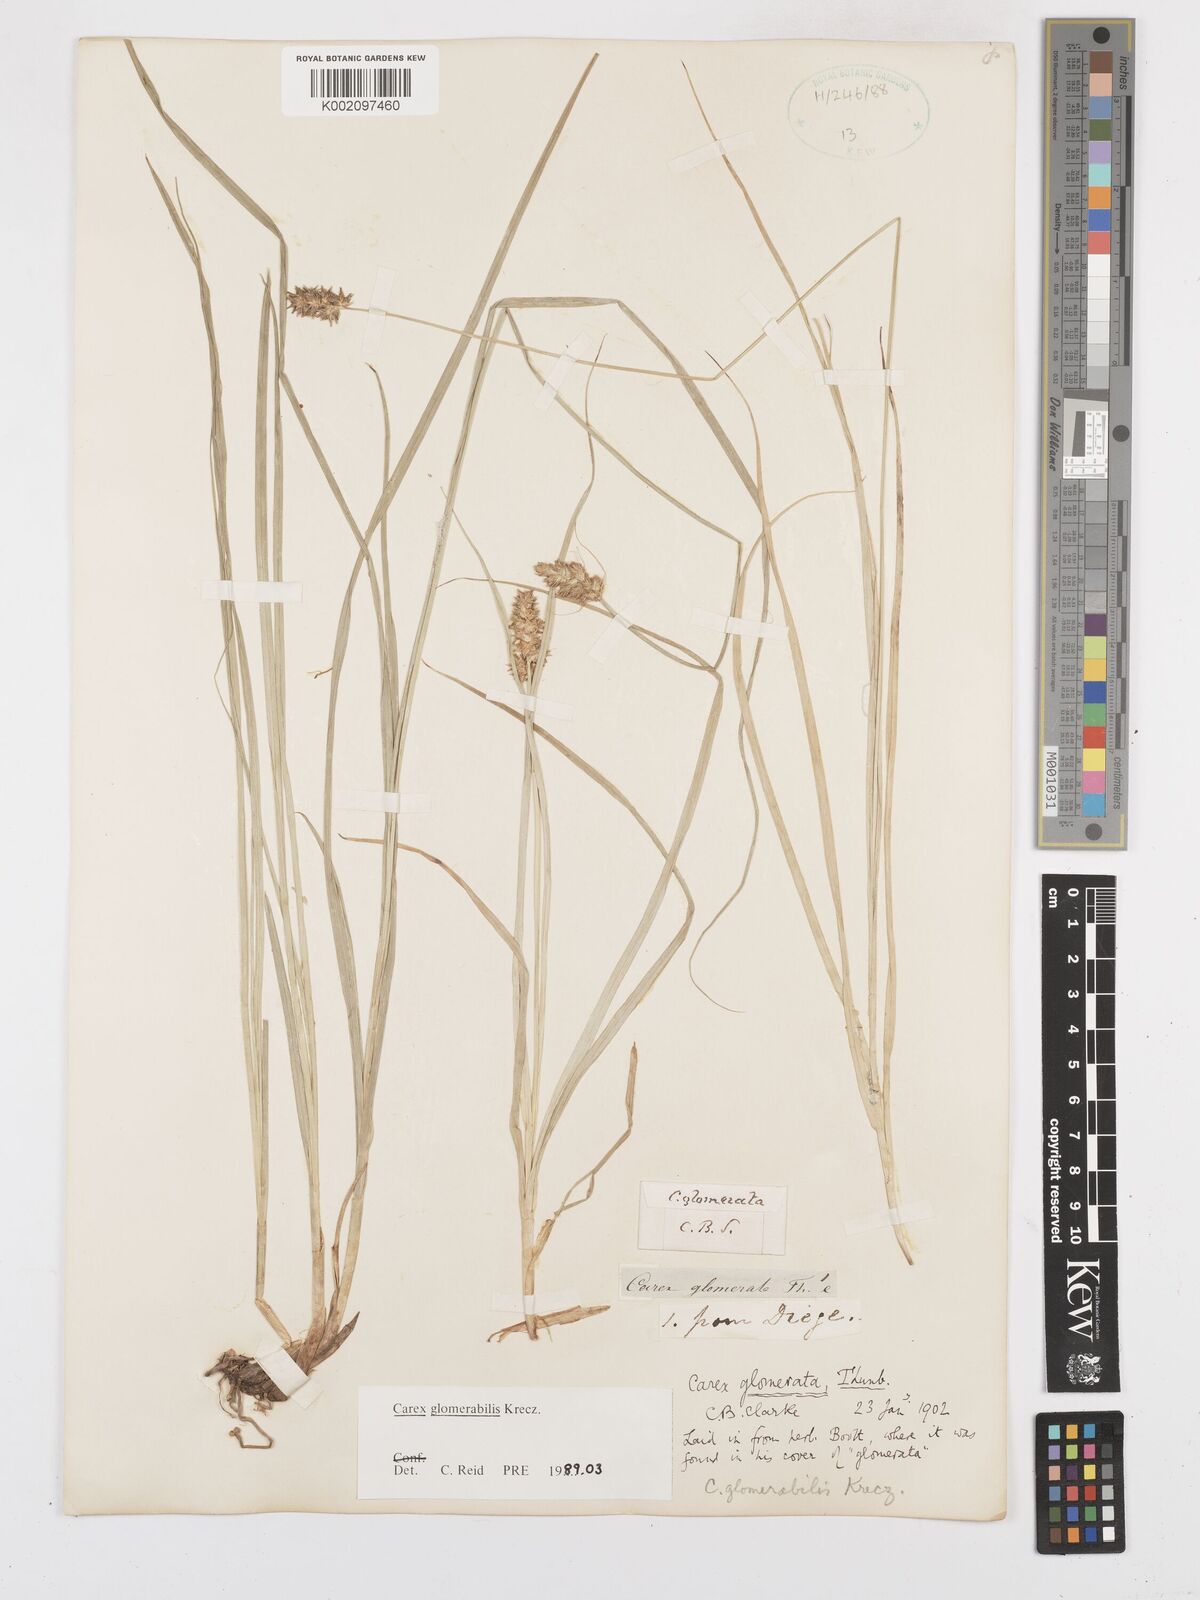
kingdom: Plantae
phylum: Tracheophyta
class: Liliopsida
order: Poales
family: Cyperaceae
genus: Carex
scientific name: Carex glomerata
